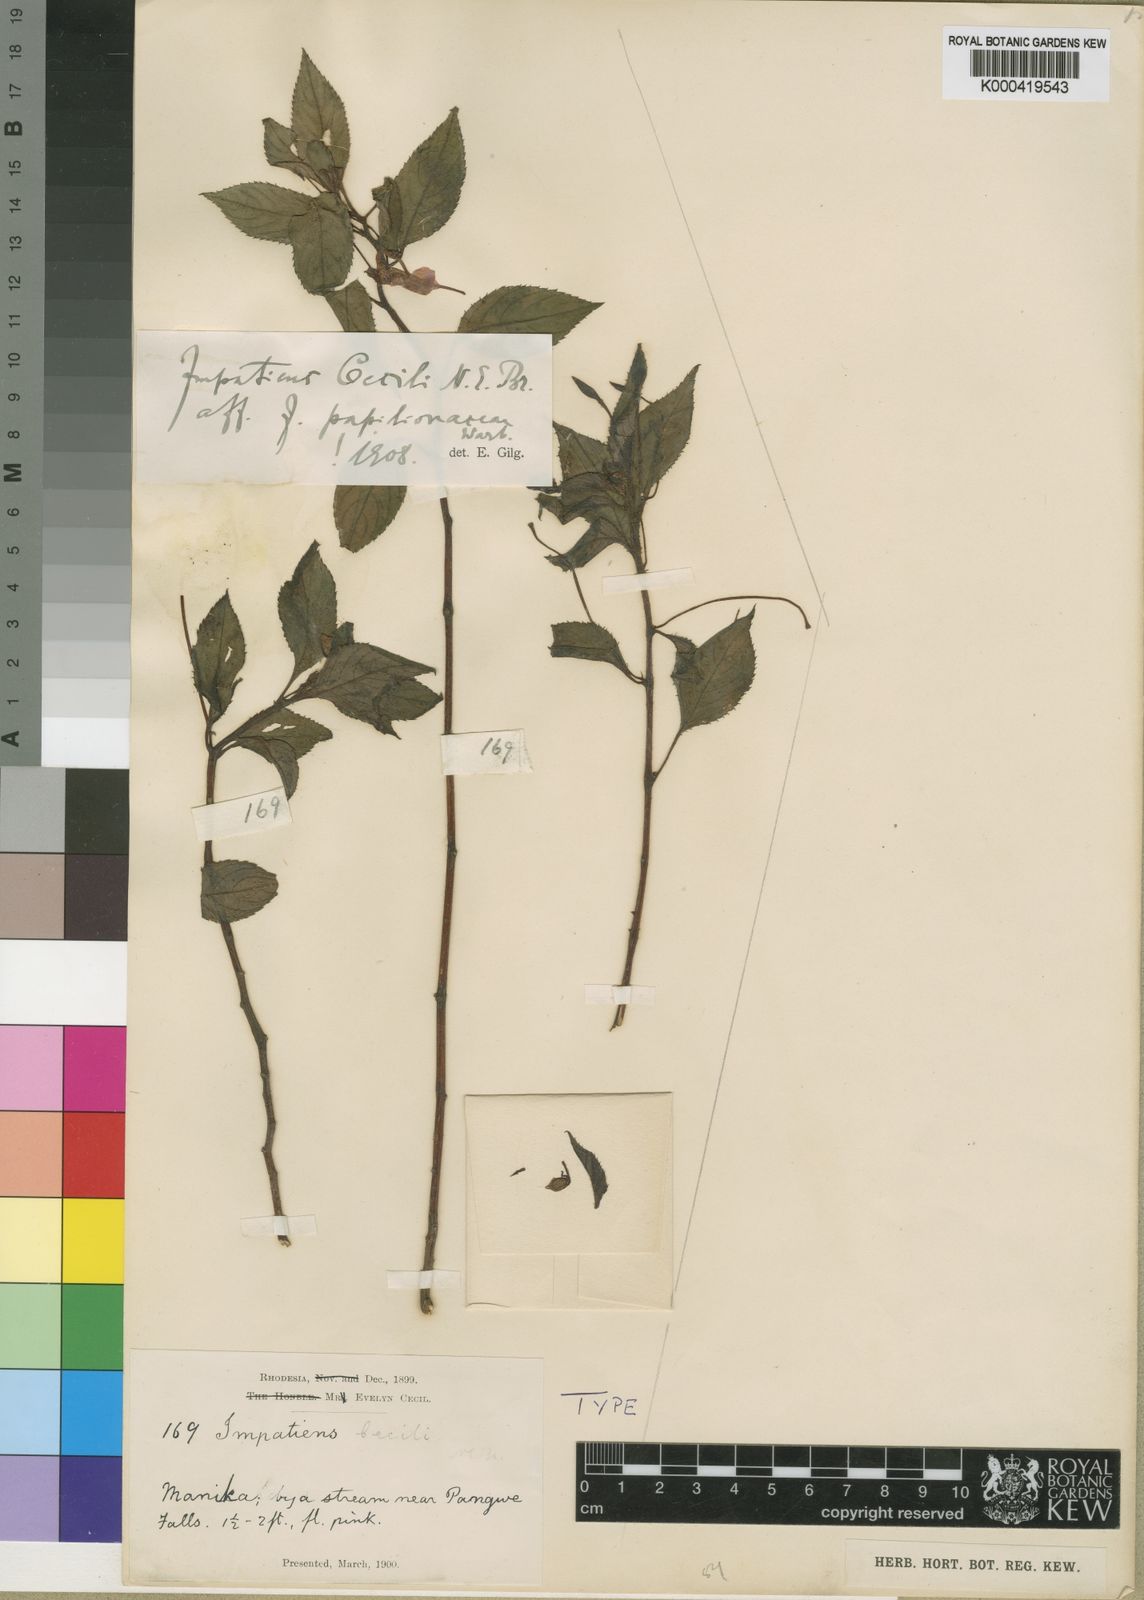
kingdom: Plantae
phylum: Tracheophyta
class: Magnoliopsida
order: Ericales
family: Balsaminaceae
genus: Impatiens
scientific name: Impatiens cecilii
